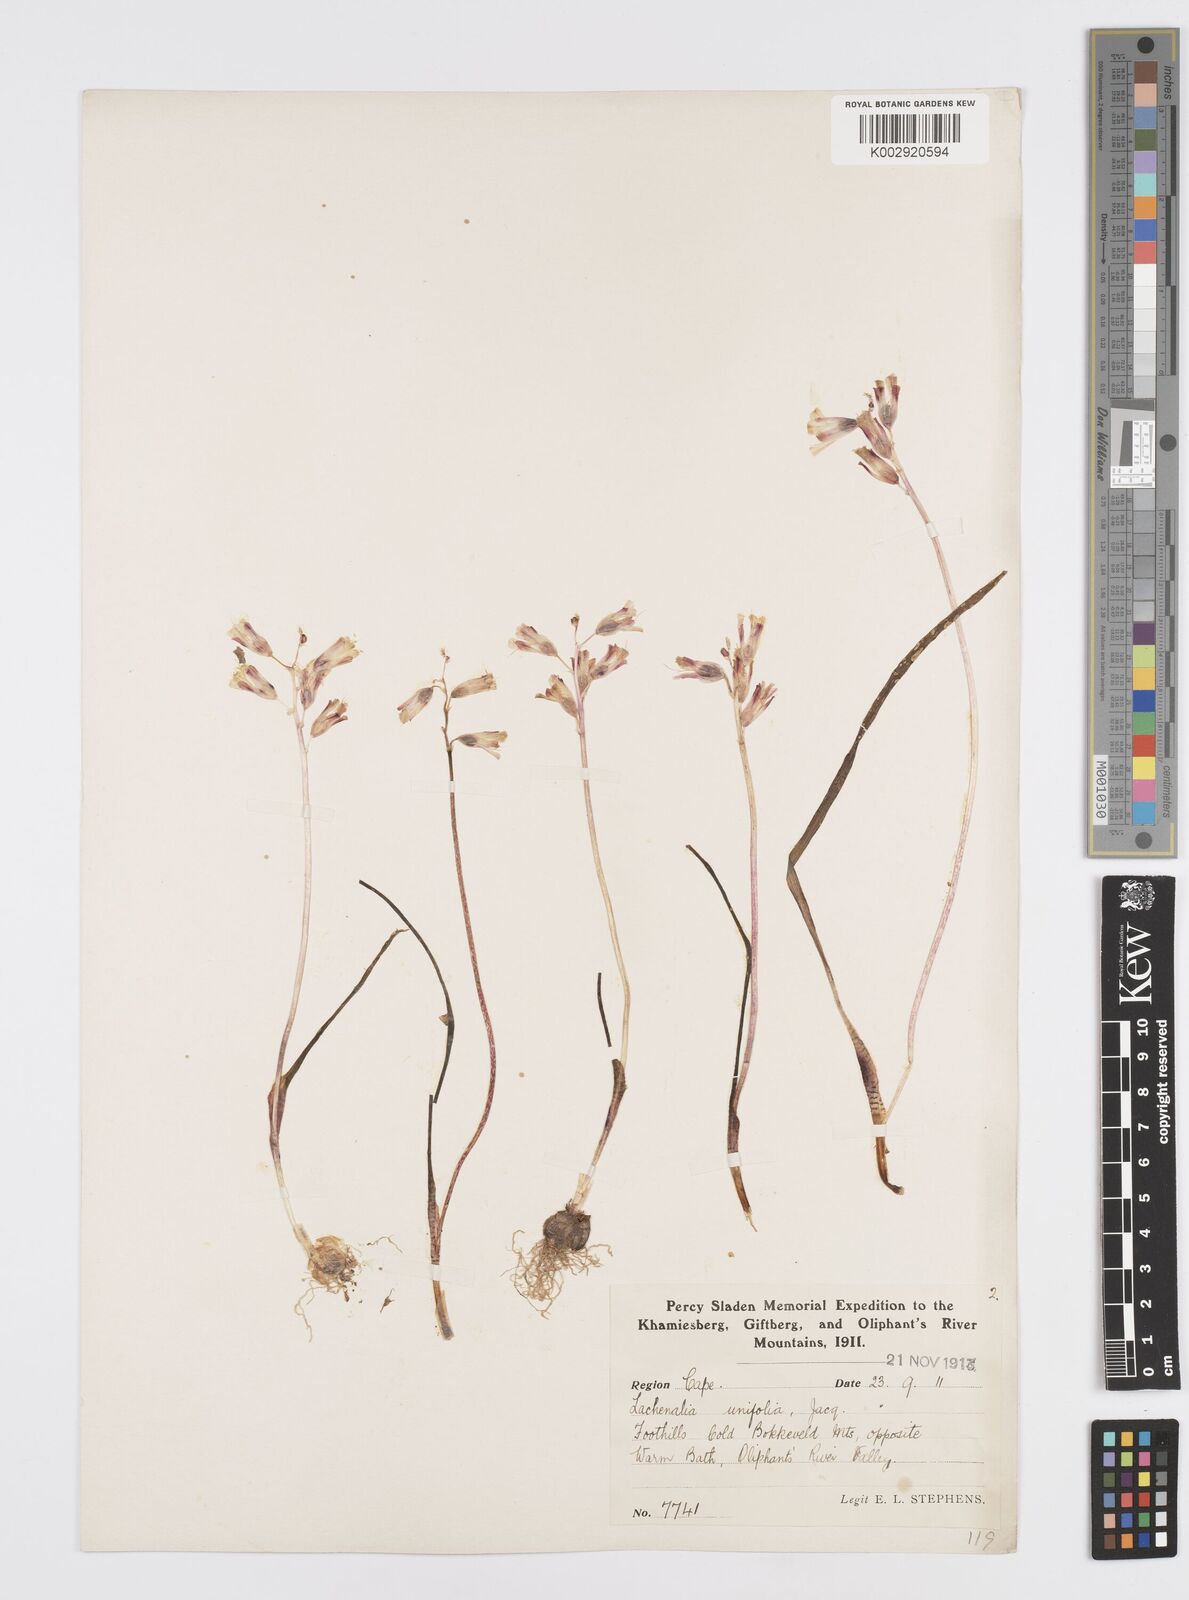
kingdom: Plantae
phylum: Tracheophyta
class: Liliopsida
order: Asparagales
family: Asparagaceae
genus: Lachenalia
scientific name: Lachenalia unifolia
